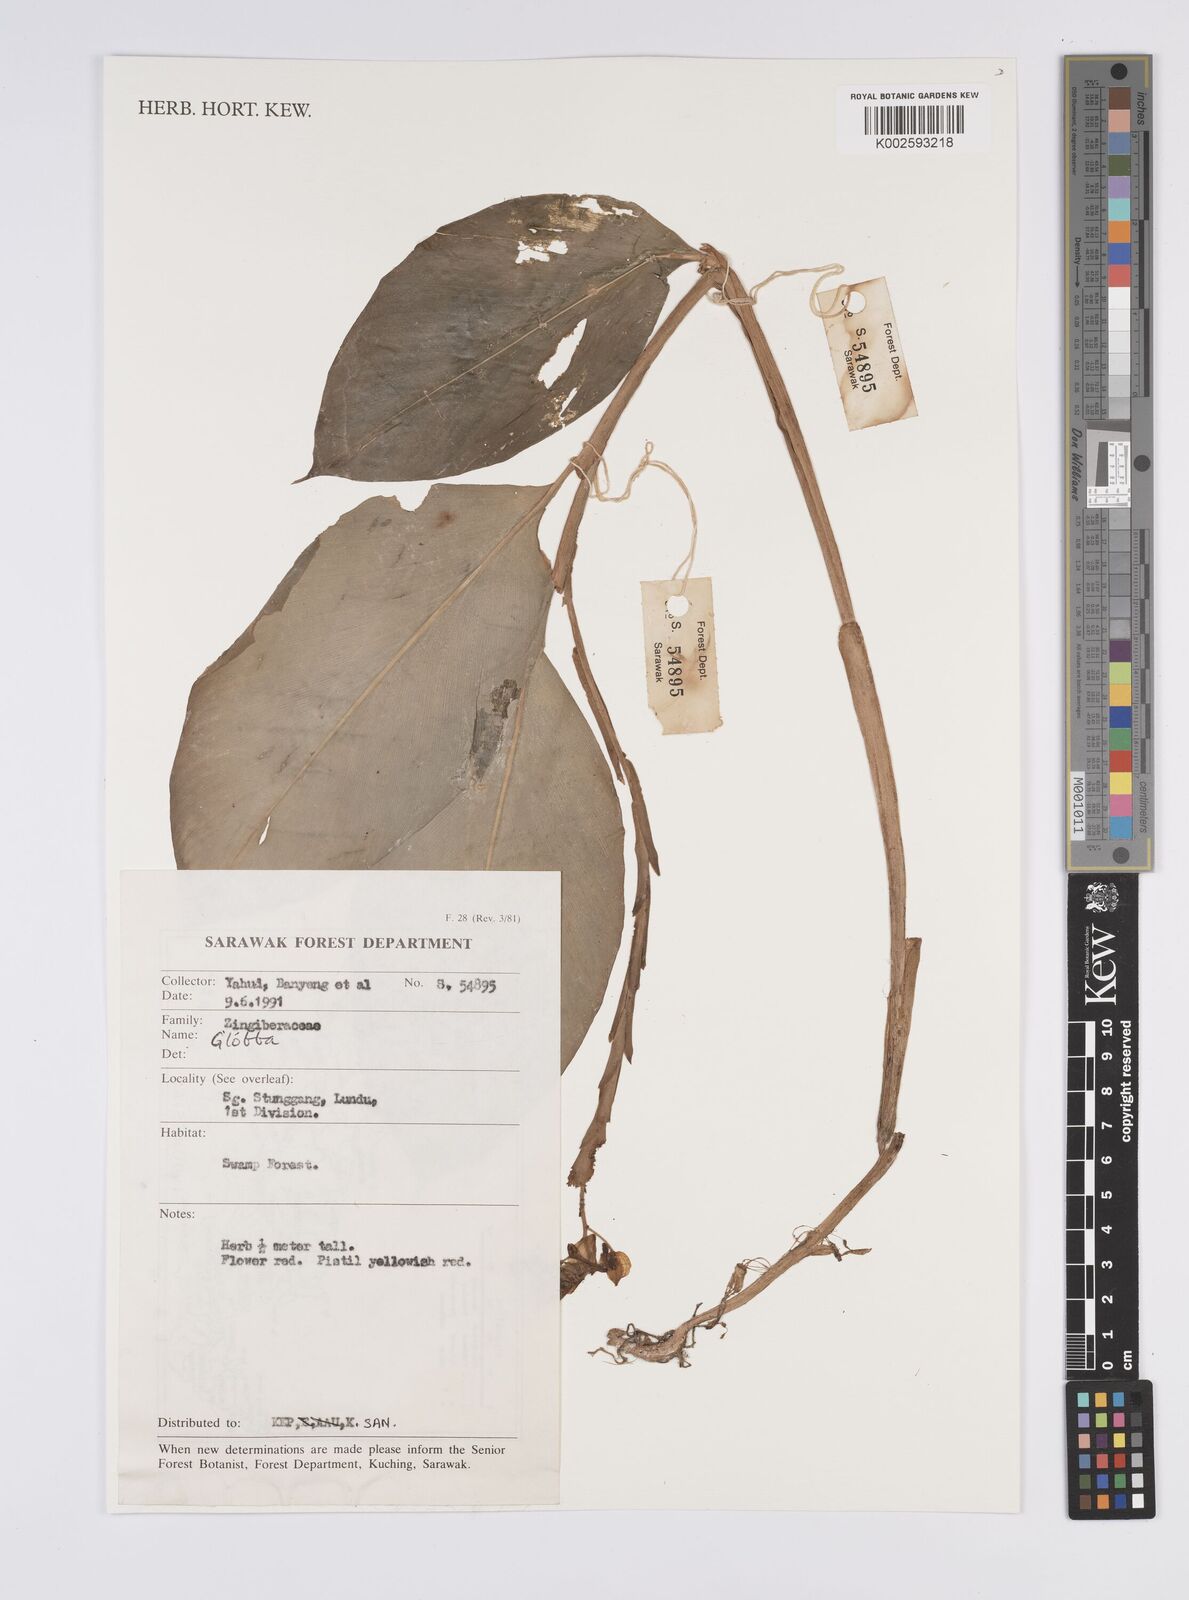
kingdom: Plantae
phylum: Tracheophyta
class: Liliopsida
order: Zingiberales
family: Zingiberaceae
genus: Globba
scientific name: Globba
